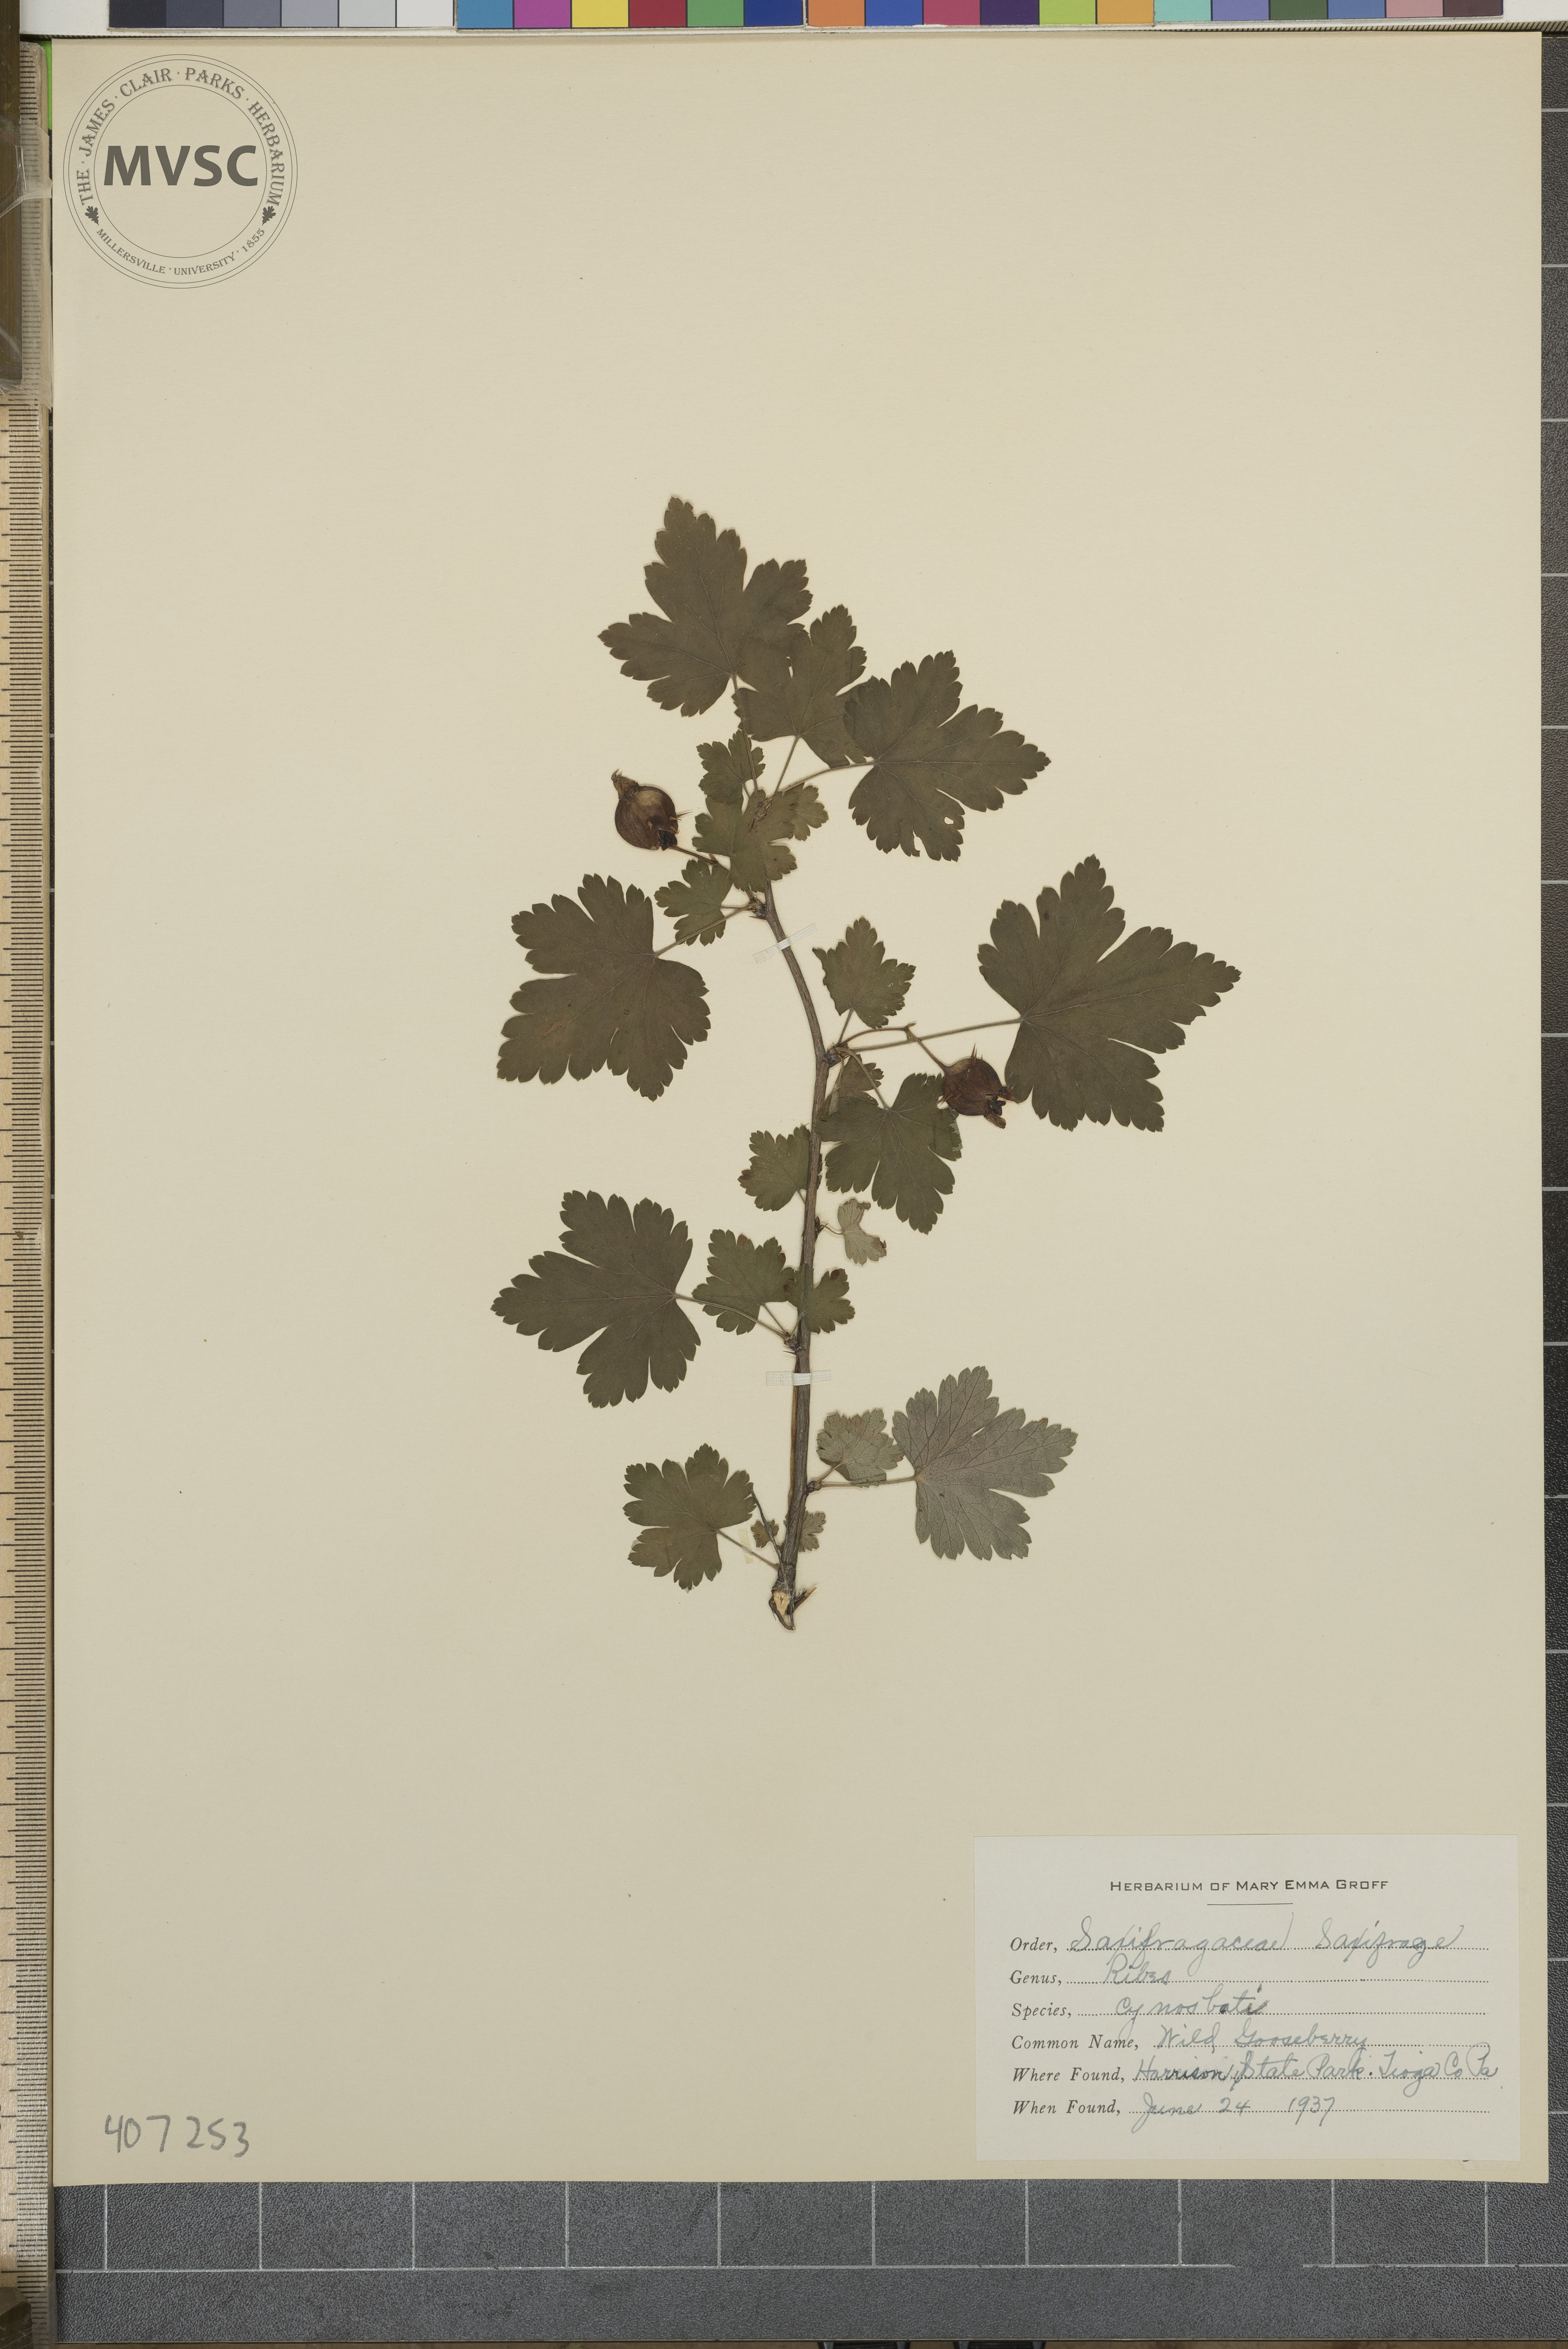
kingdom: Plantae
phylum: Tracheophyta
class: Magnoliopsida
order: Saxifragales
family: Grossulariaceae
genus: Ribes
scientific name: Ribes cynosbati
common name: Wild Gooseberry
